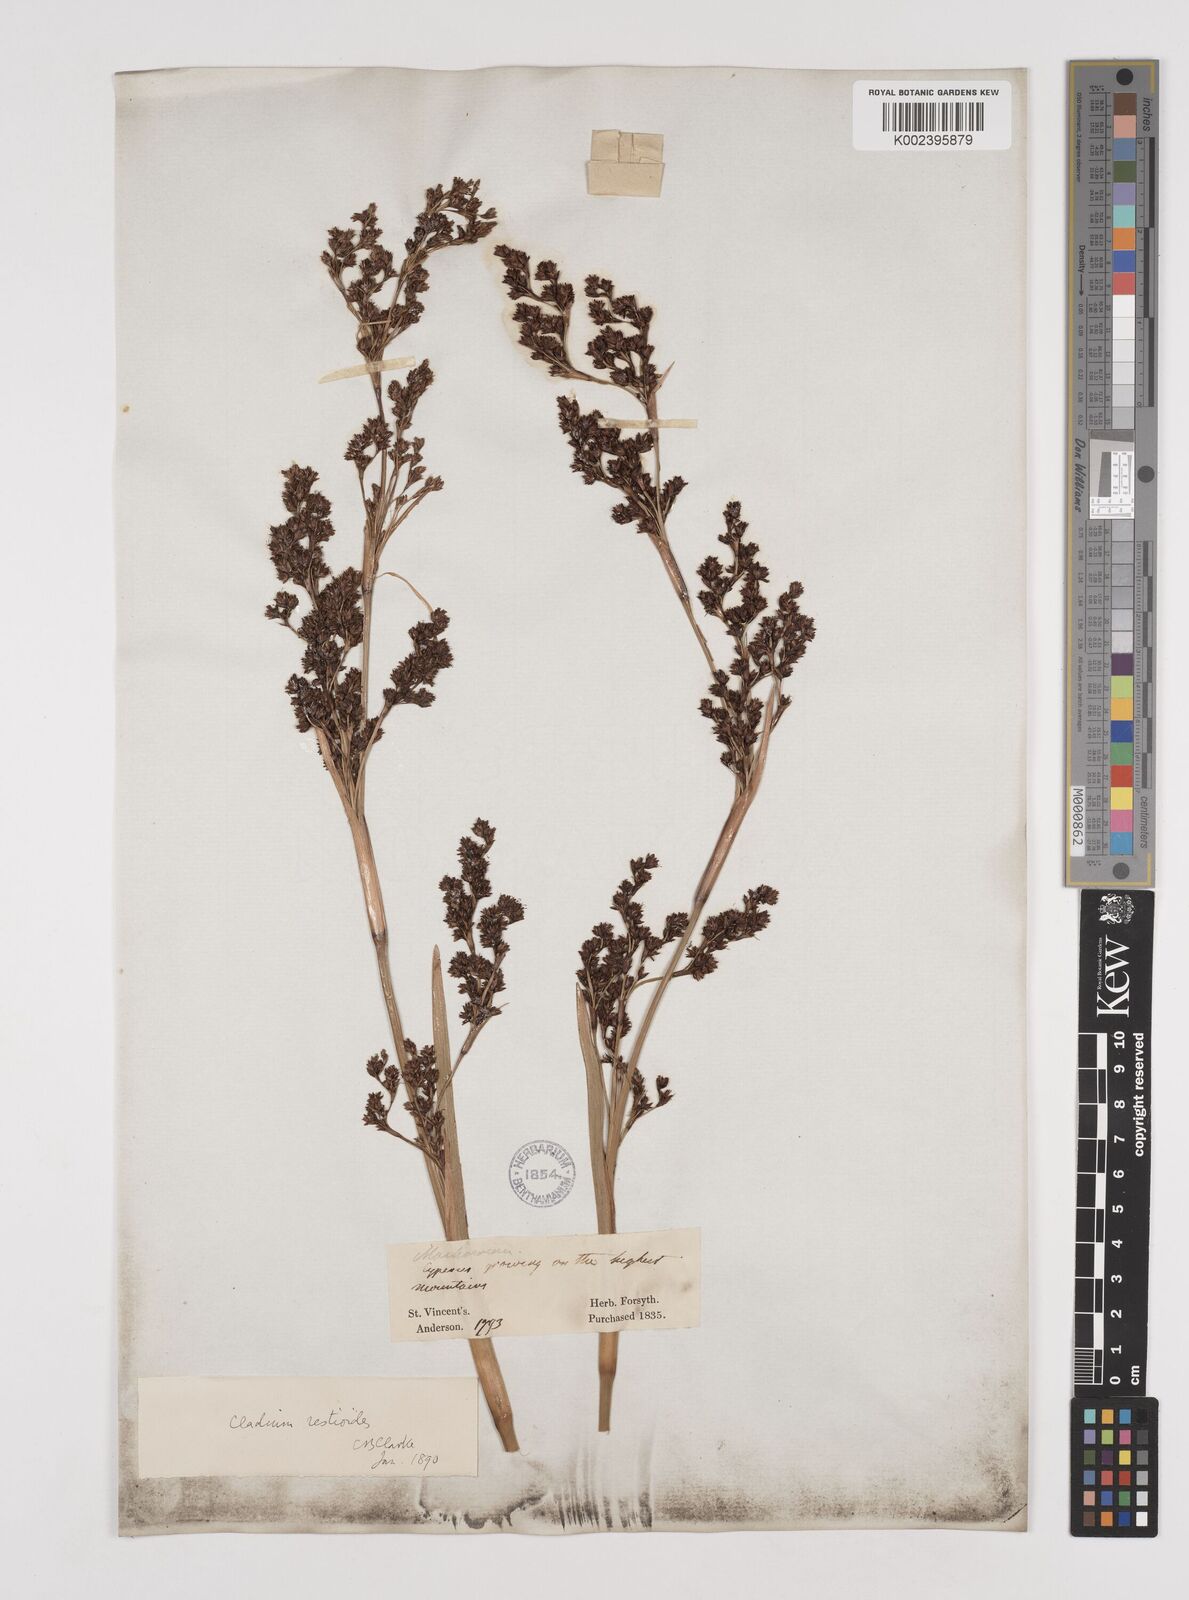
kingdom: Plantae
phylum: Tracheophyta
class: Liliopsida
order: Poales
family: Cyperaceae
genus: Machaerina
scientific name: Machaerina restioides
